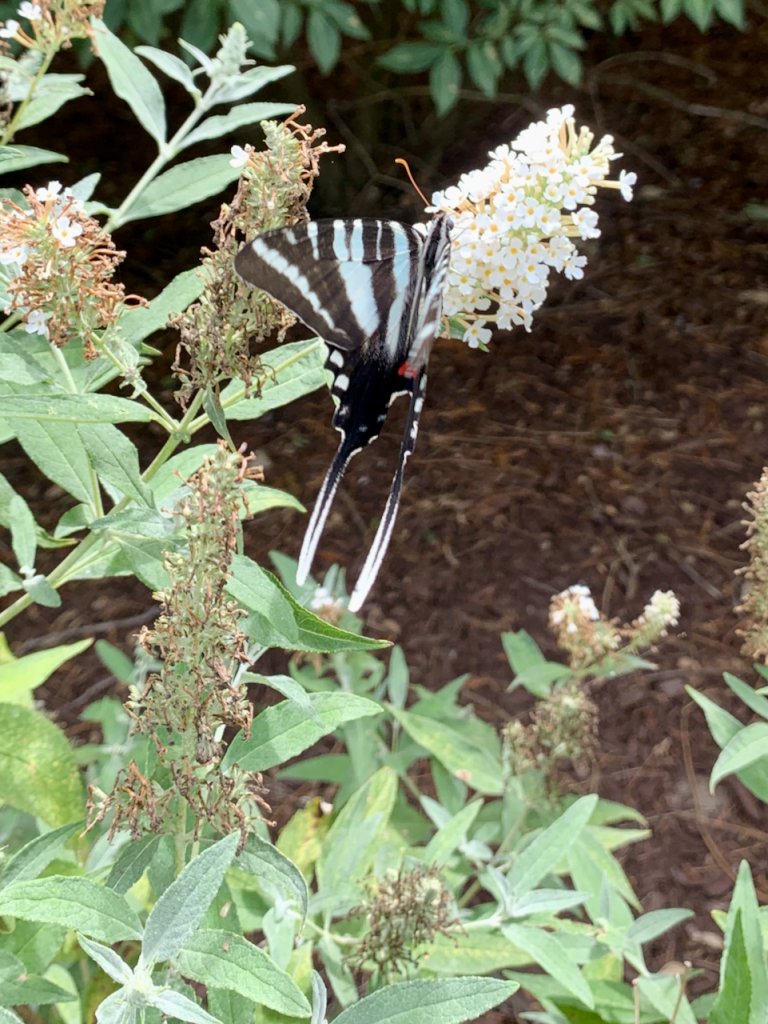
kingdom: Animalia
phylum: Arthropoda
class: Insecta
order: Lepidoptera
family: Papilionidae
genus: Protographium
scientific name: Protographium marcellus
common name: Zebra Swallowtail
